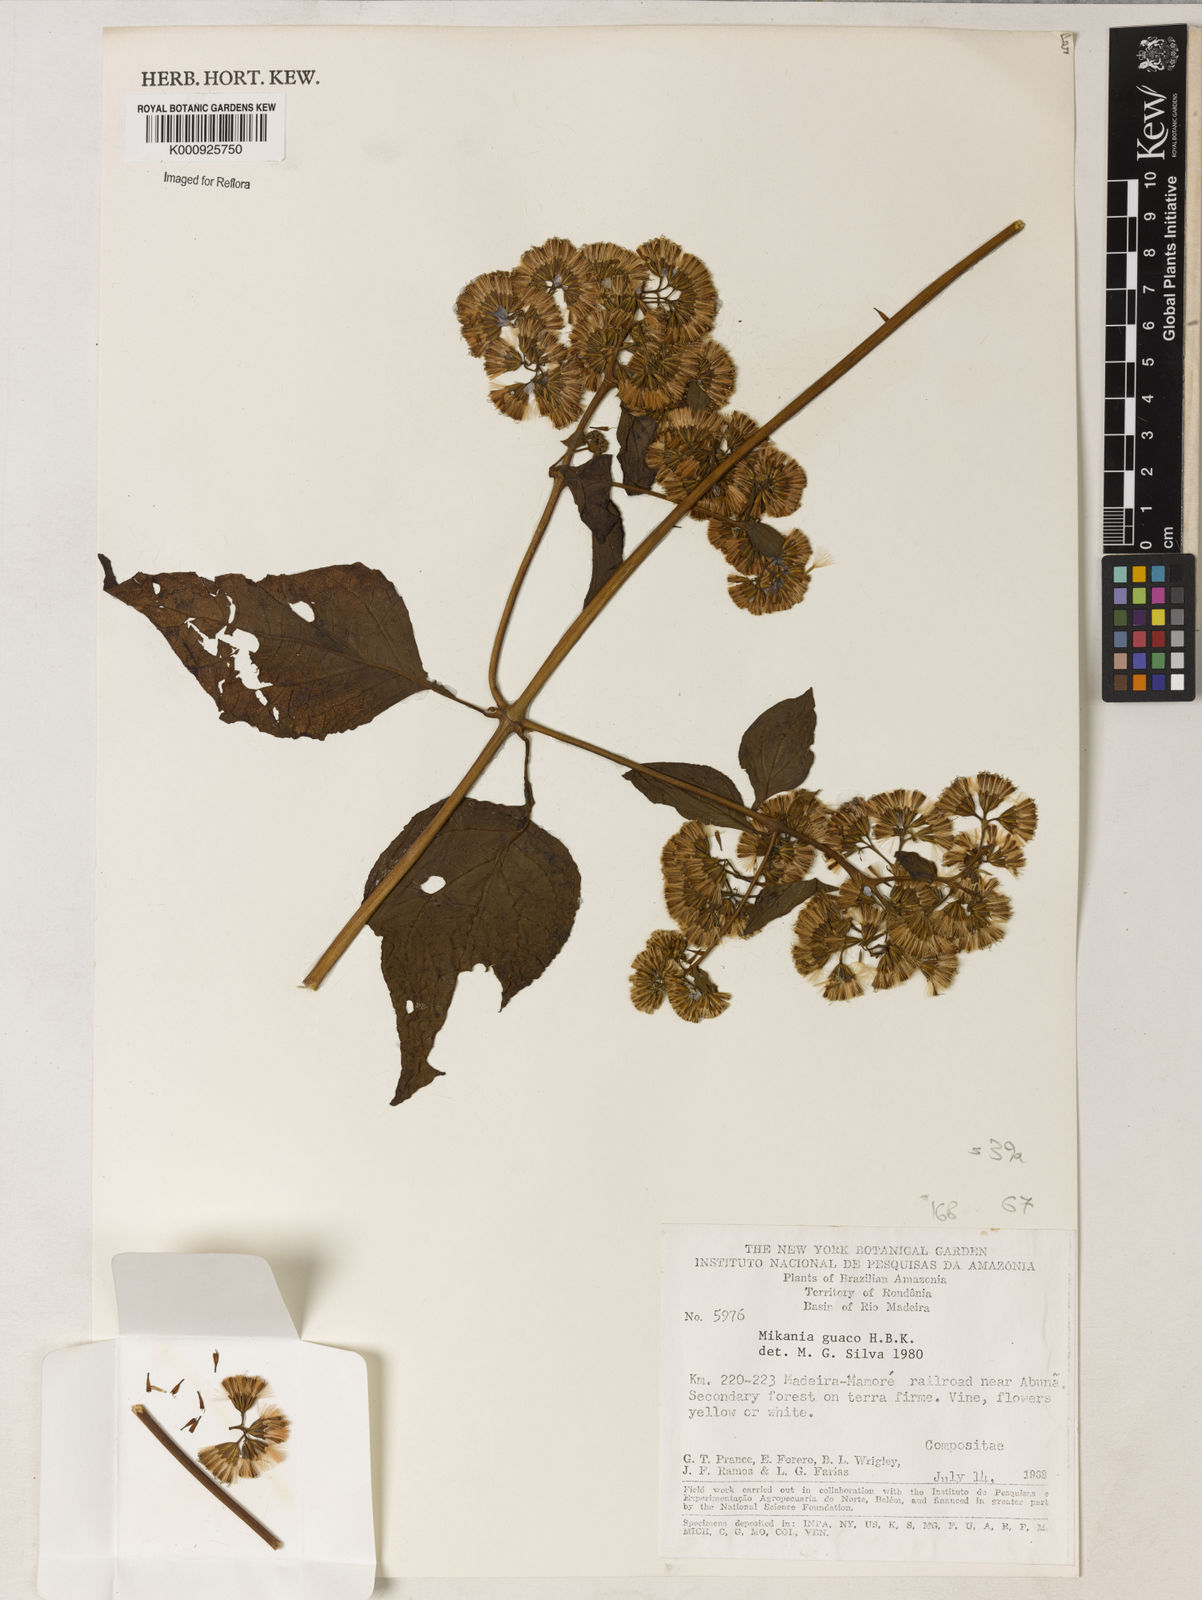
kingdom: Plantae
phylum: Tracheophyta
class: Magnoliopsida
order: Asterales
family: Asteraceae
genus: Mikania
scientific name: Mikania guaco
